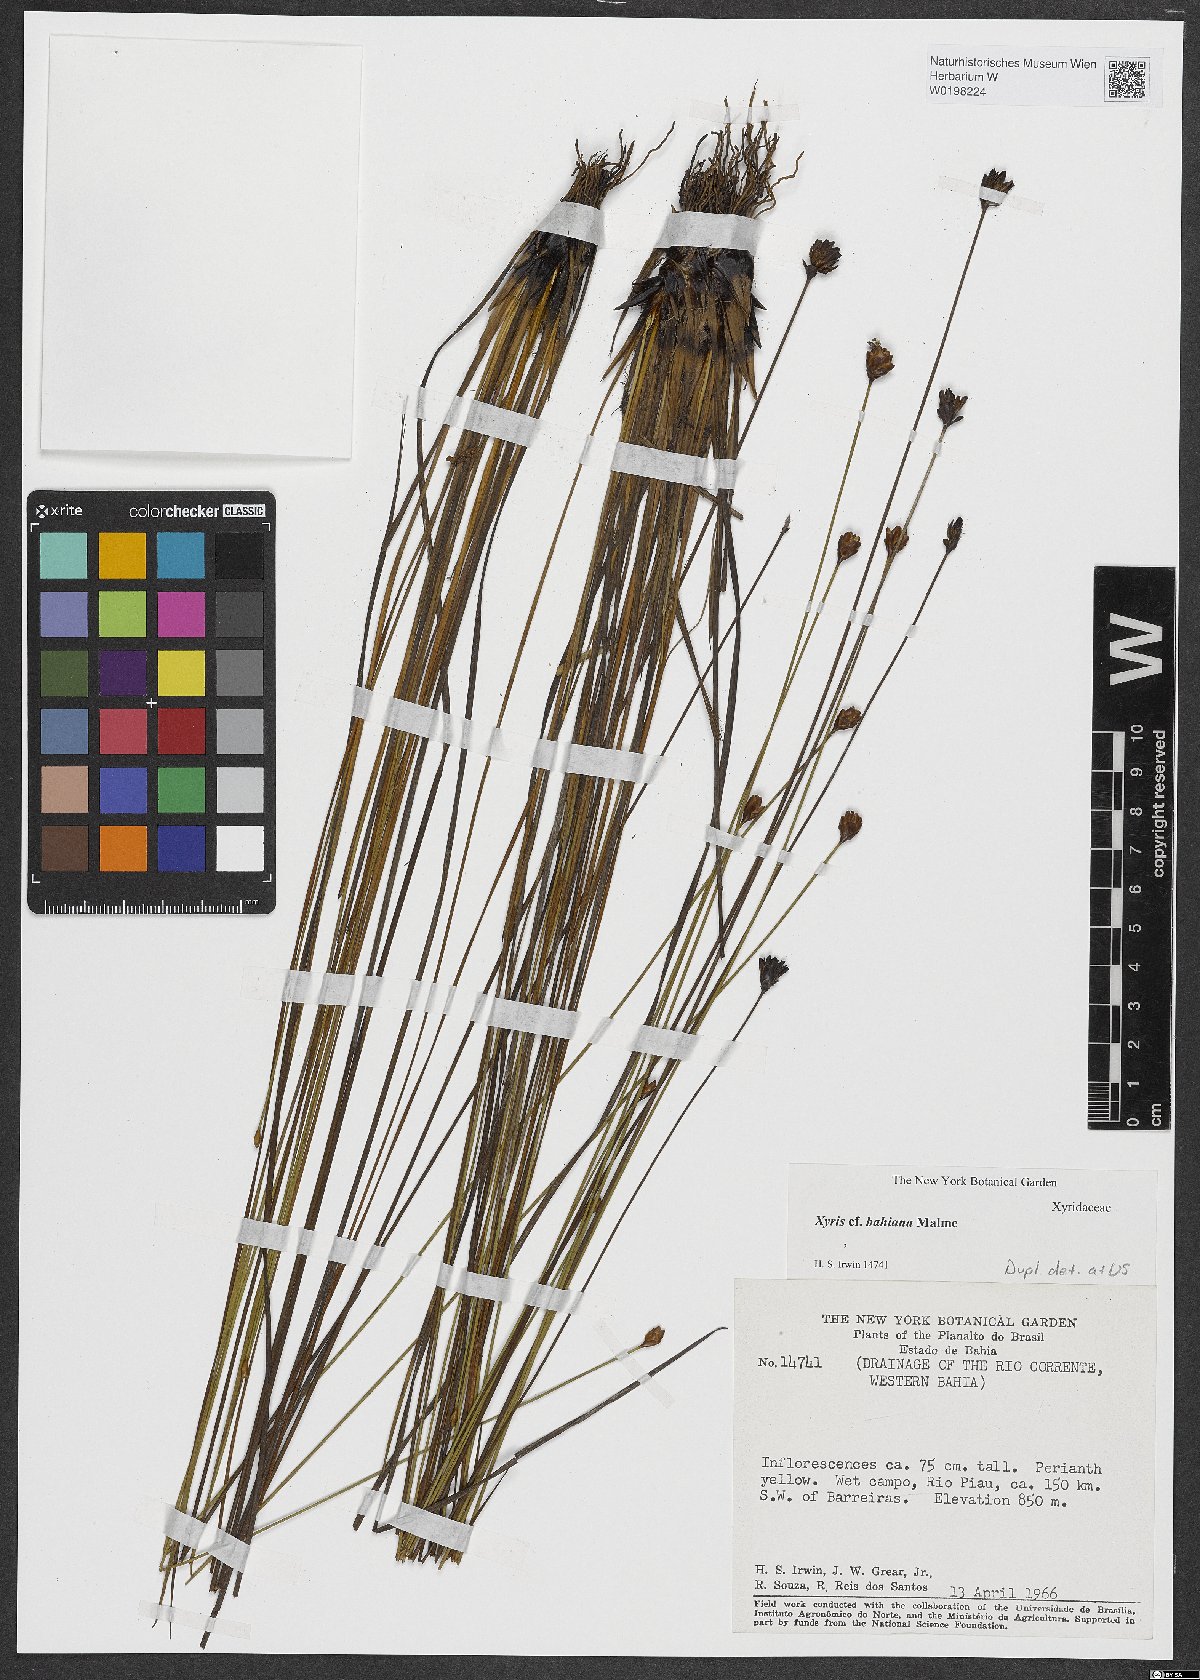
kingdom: Plantae
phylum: Tracheophyta
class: Liliopsida
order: Poales
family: Xyridaceae
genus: Xyris
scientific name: Xyris bahiana
